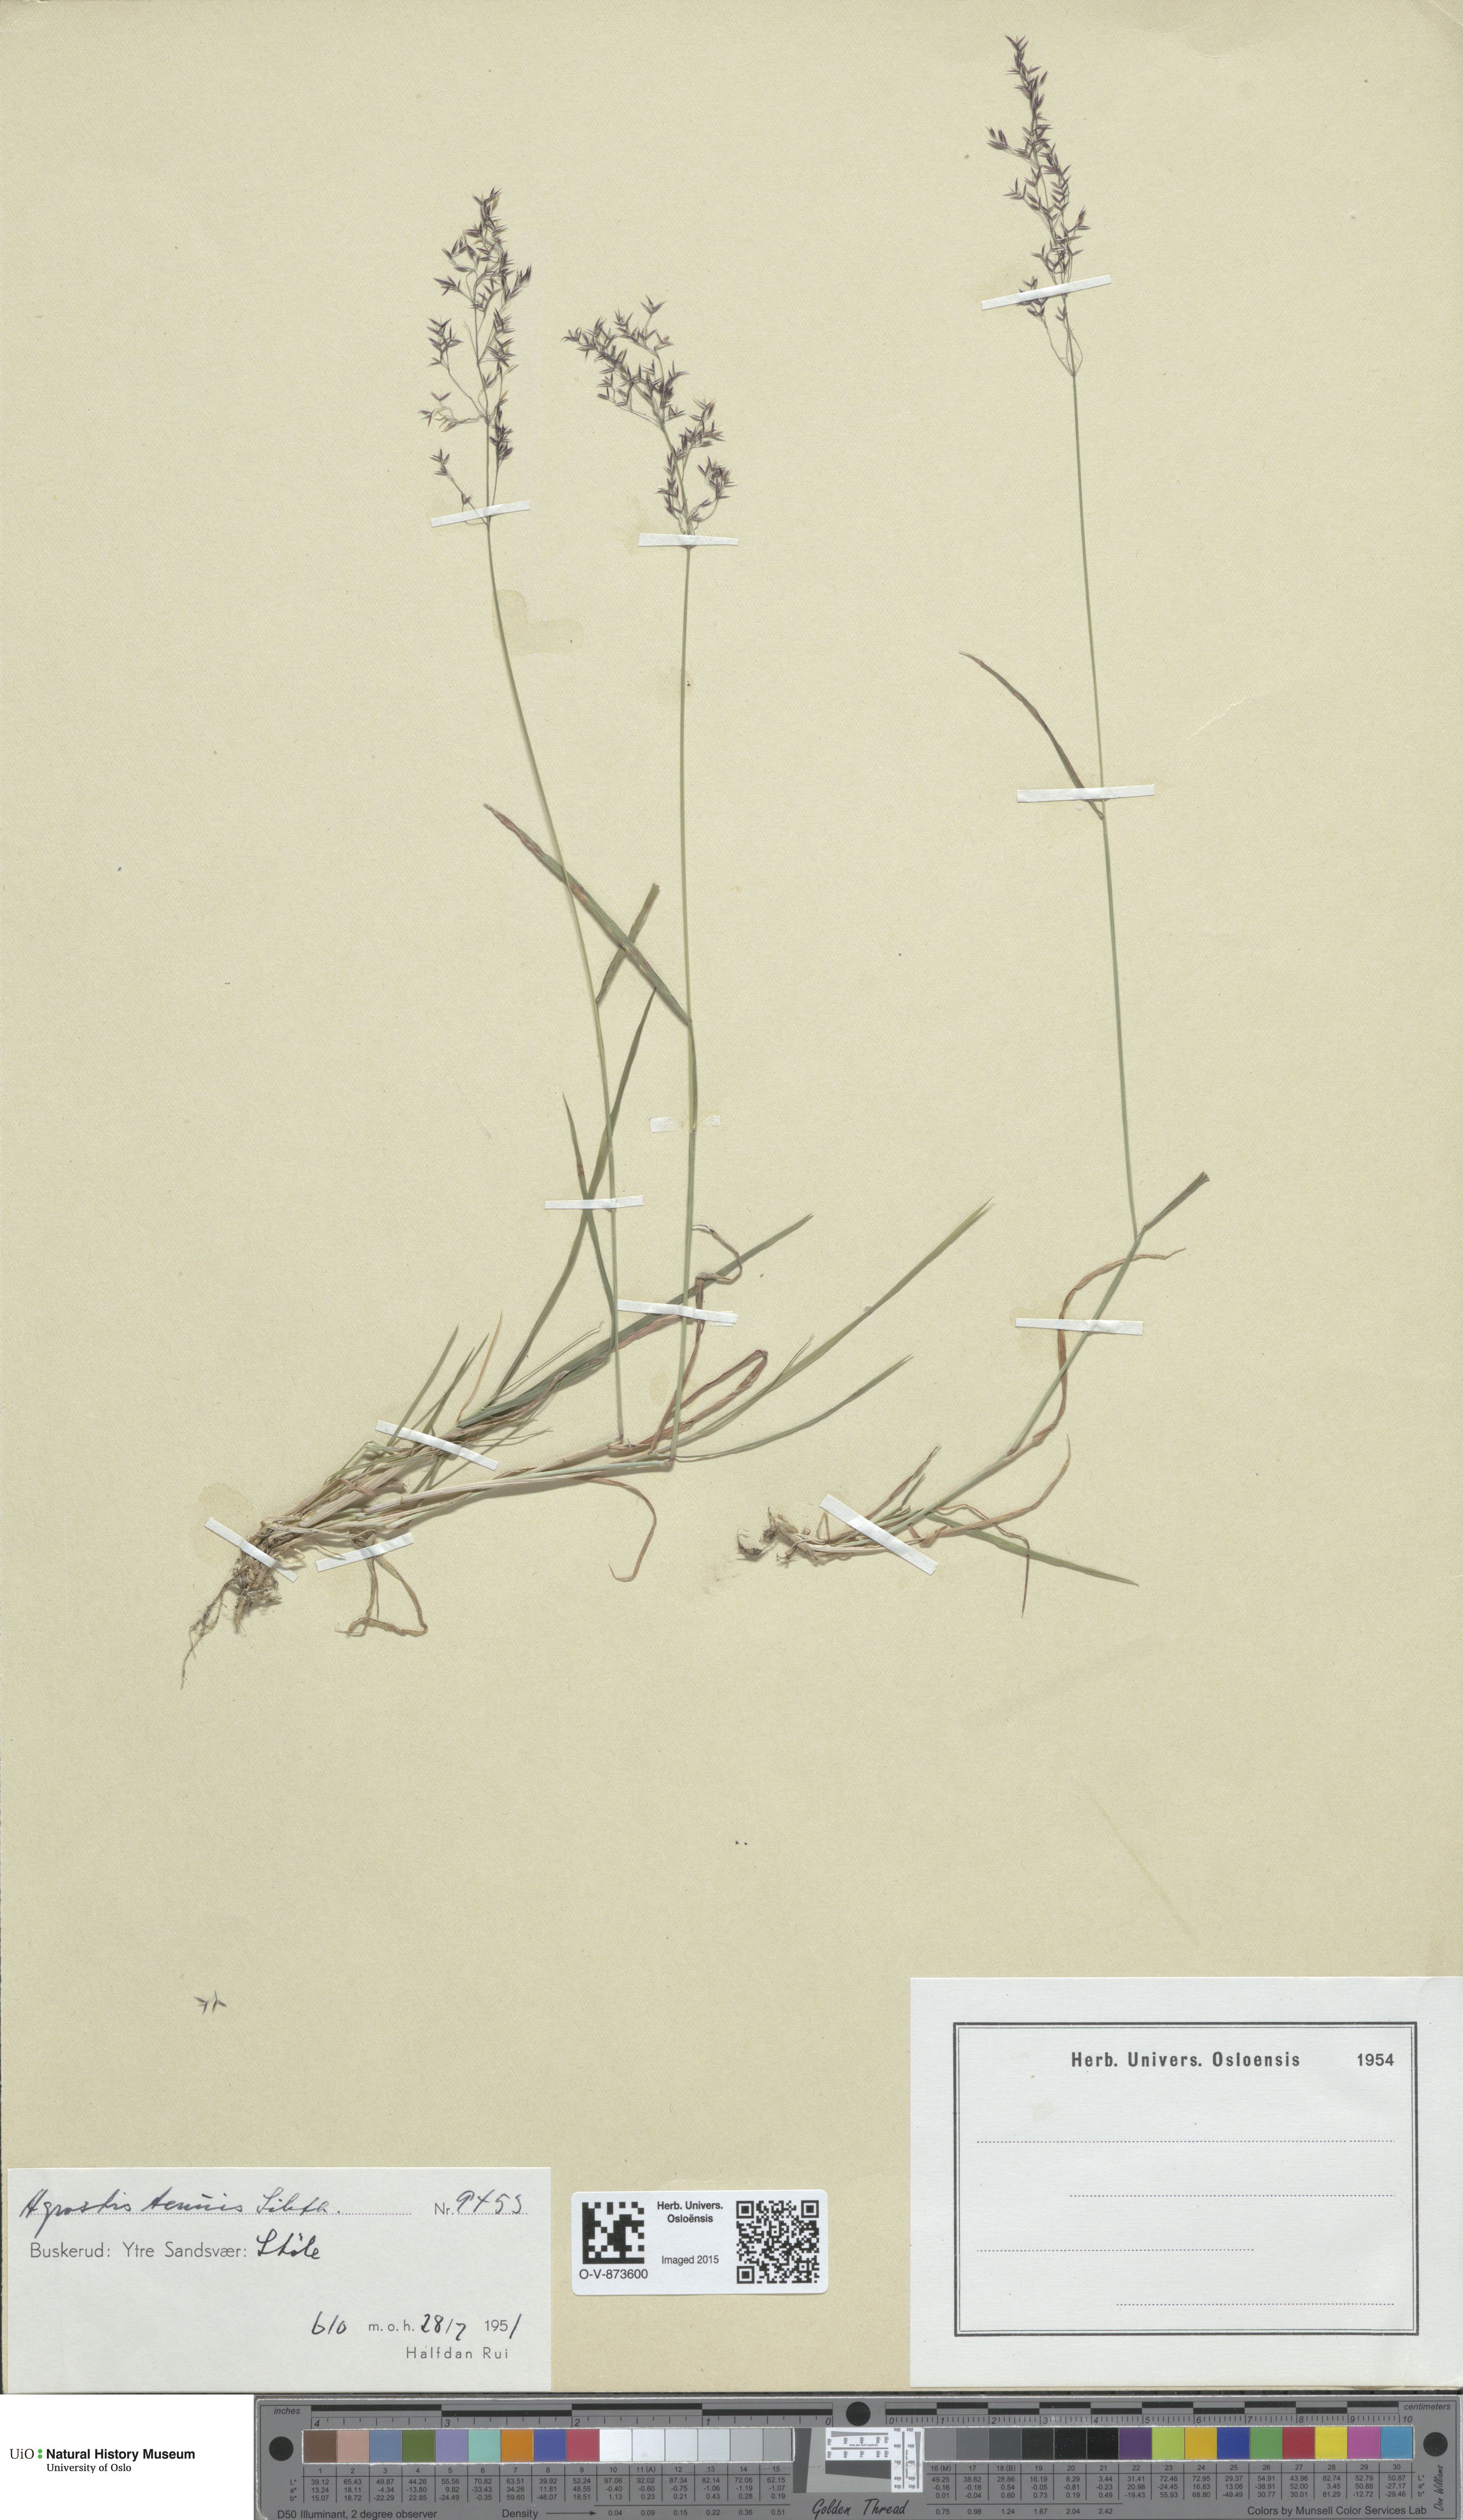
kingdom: Plantae
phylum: Tracheophyta
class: Liliopsida
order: Poales
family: Poaceae
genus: Agrostis
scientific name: Agrostis capillaris
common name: Colonial bentgrass
